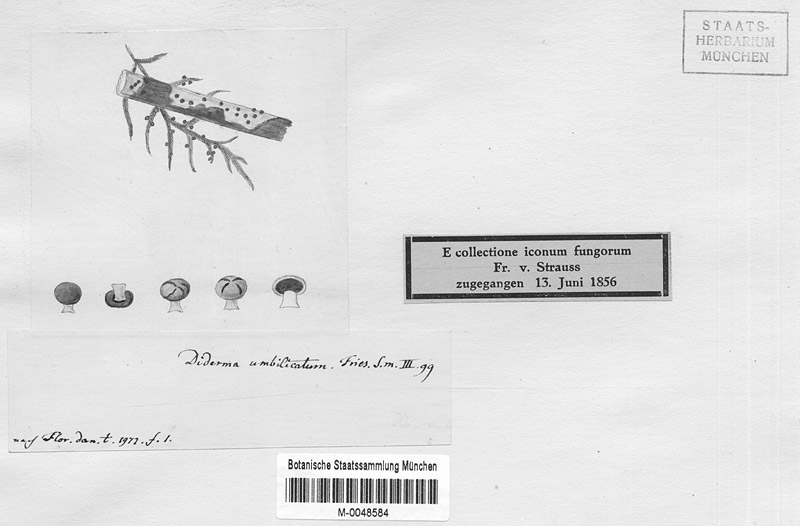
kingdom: Protozoa
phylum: Mycetozoa
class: Myxomycetes
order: Physarales
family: Didymiaceae
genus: Diderma
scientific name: Diderma umbilicatum
